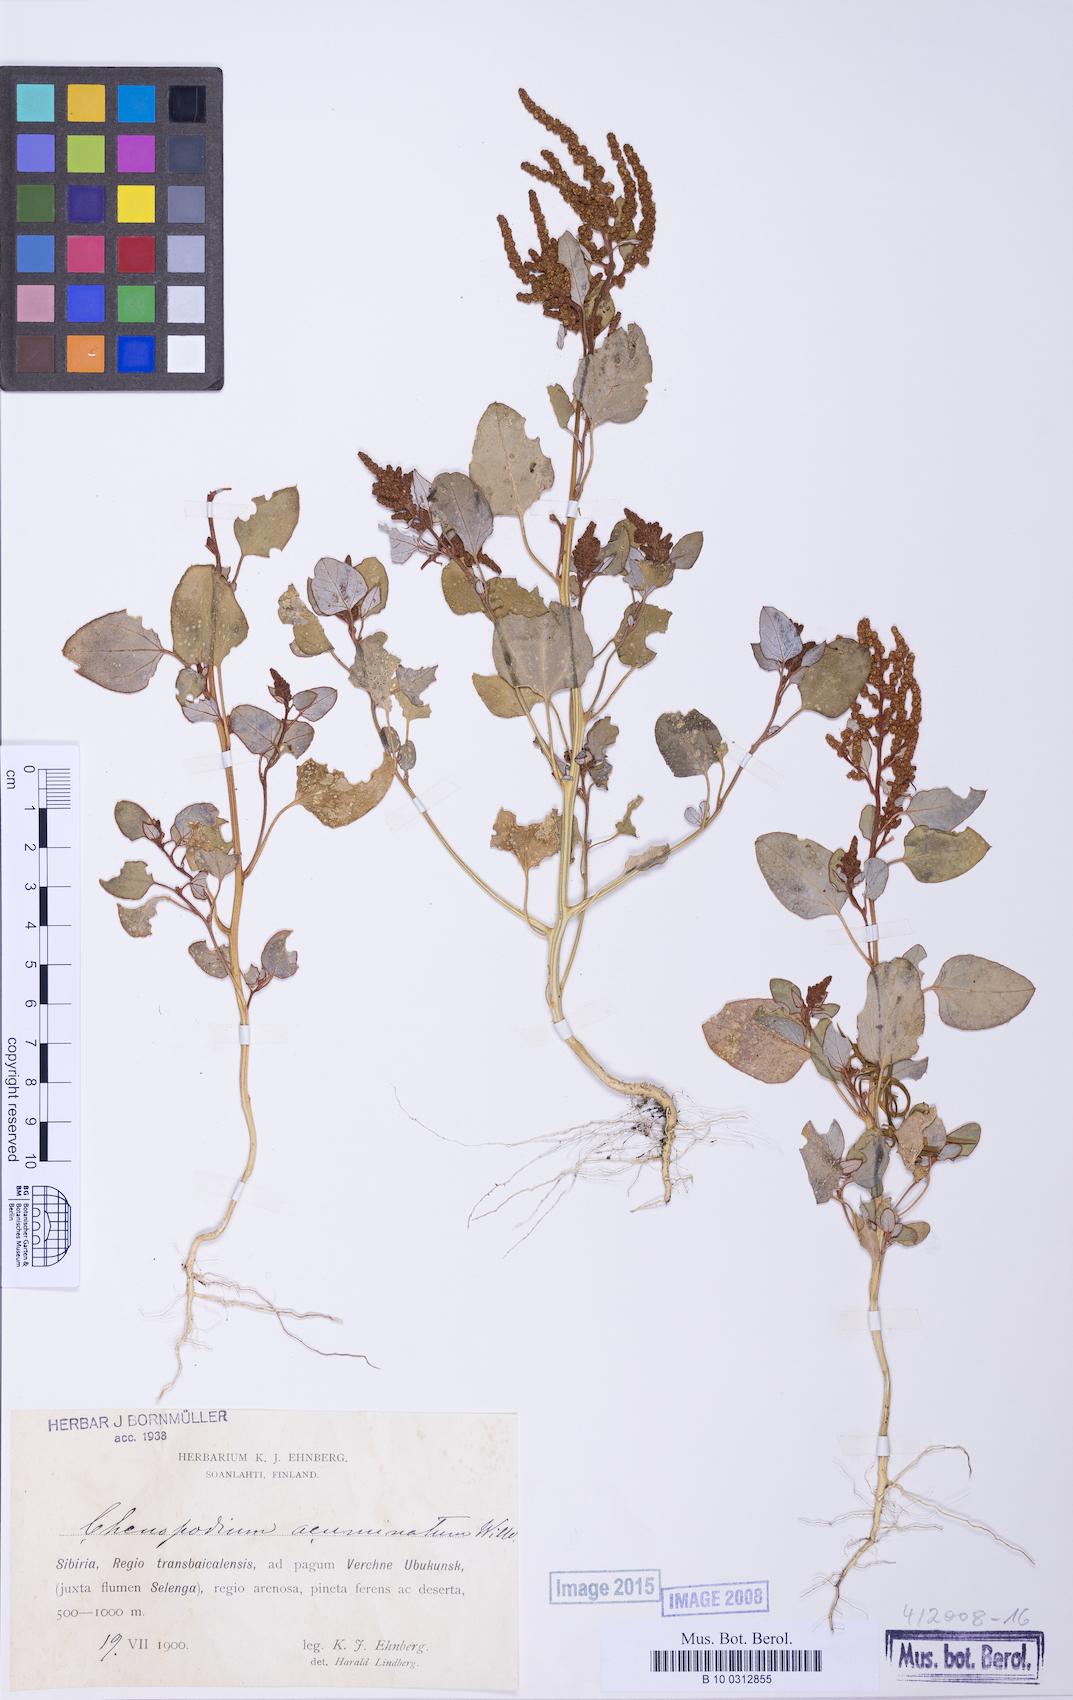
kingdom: Plantae
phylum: Tracheophyta
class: Magnoliopsida
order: Caryophyllales
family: Amaranthaceae
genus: Chenopodium
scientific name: Chenopodium acuminatum
